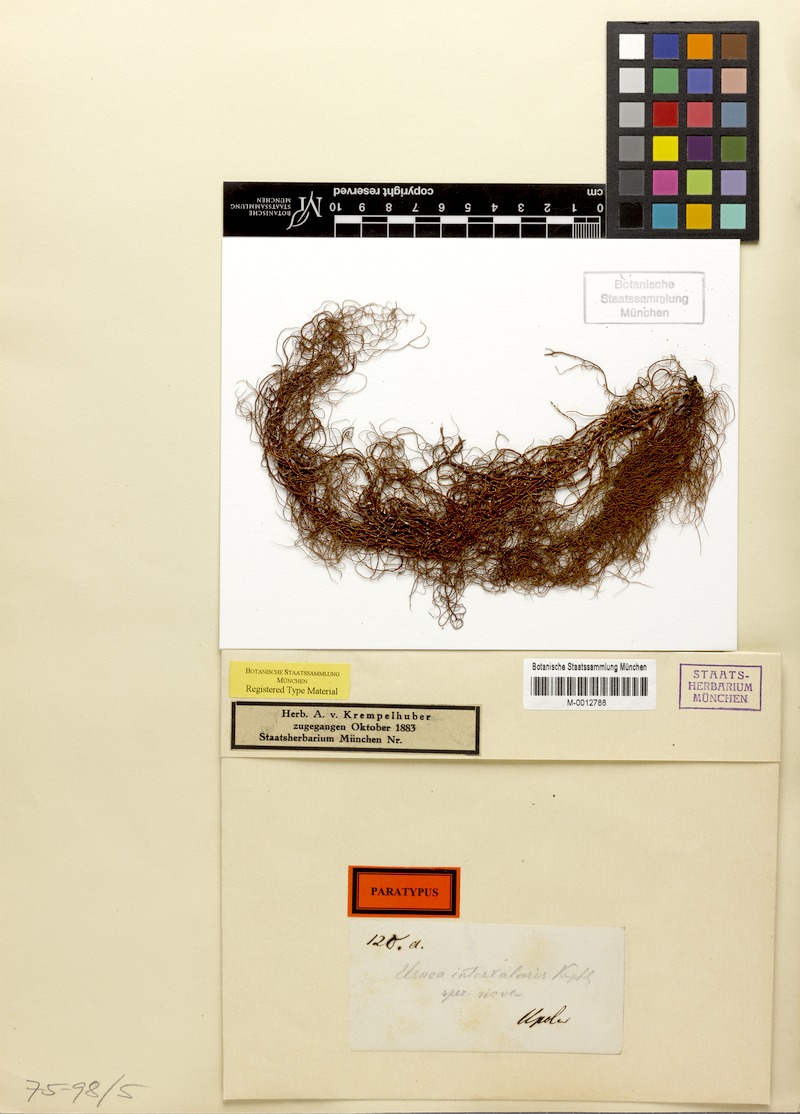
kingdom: Fungi
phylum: Ascomycota
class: Lecanoromycetes
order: Lecanorales
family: Parmeliaceae
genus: Usnea
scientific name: Usnea nidifica
